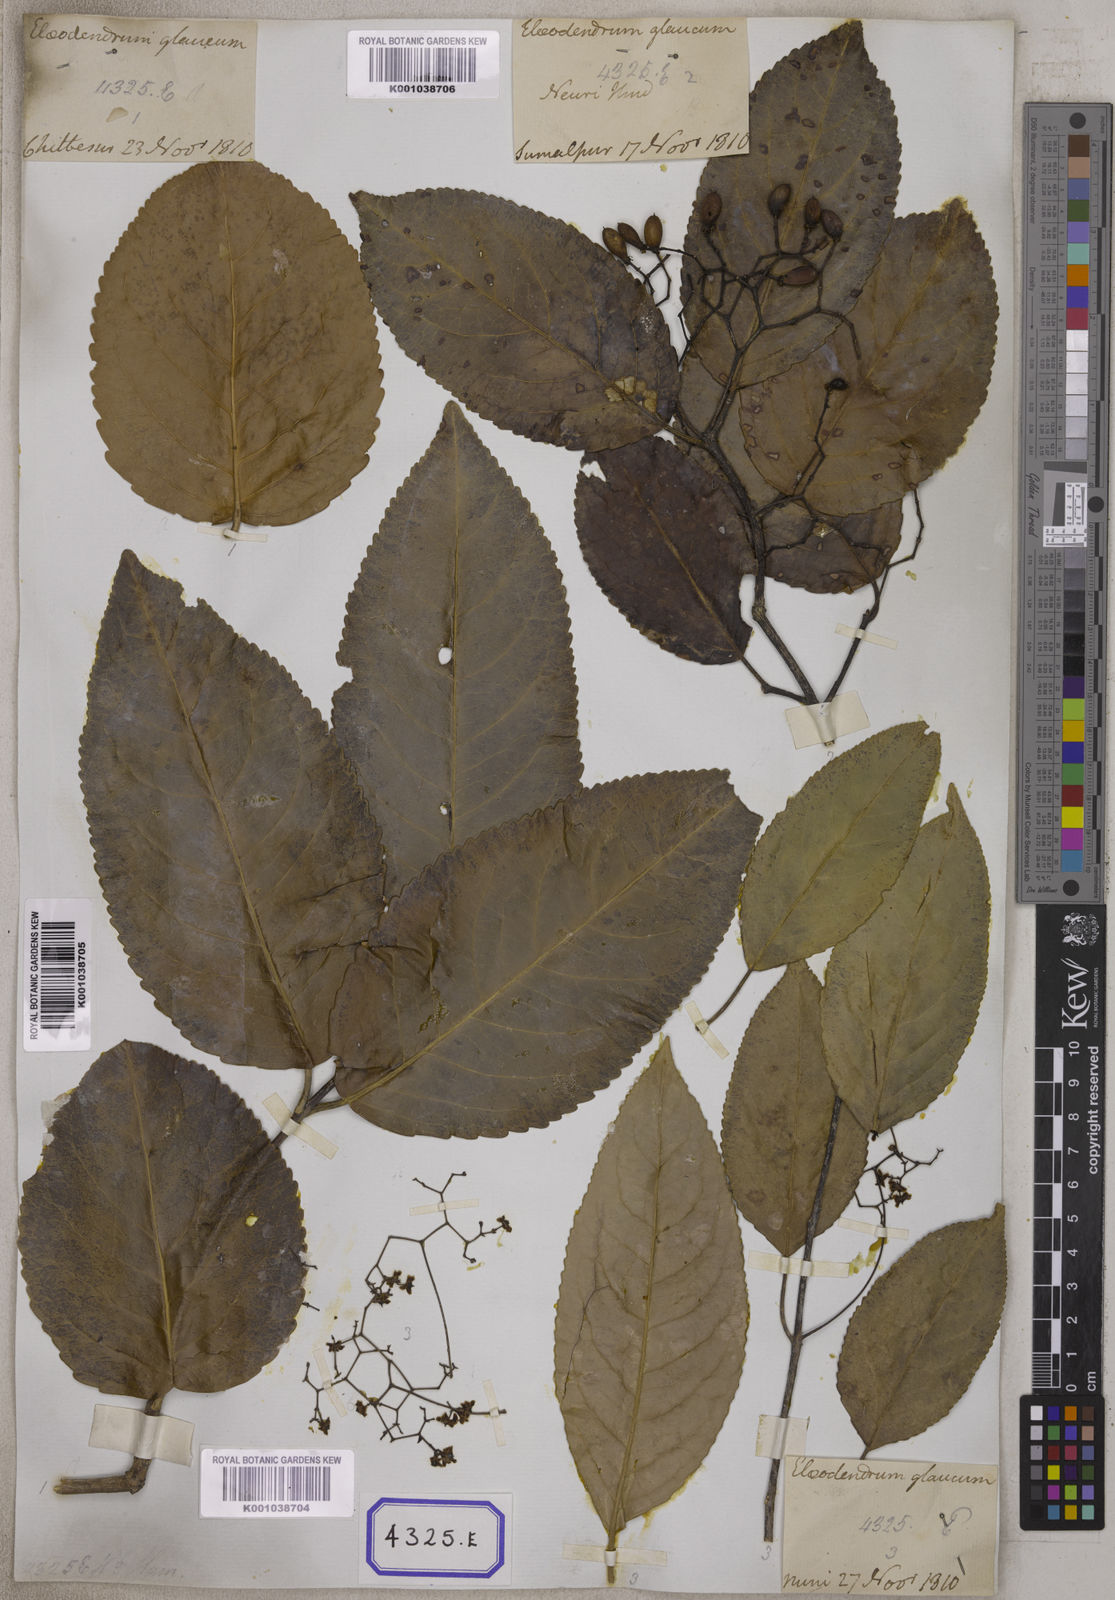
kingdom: Plantae
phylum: Tracheophyta
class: Magnoliopsida
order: Celastrales
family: Celastraceae
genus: Elaeodendron
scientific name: Elaeodendron glaucum
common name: Ceylon-tea
